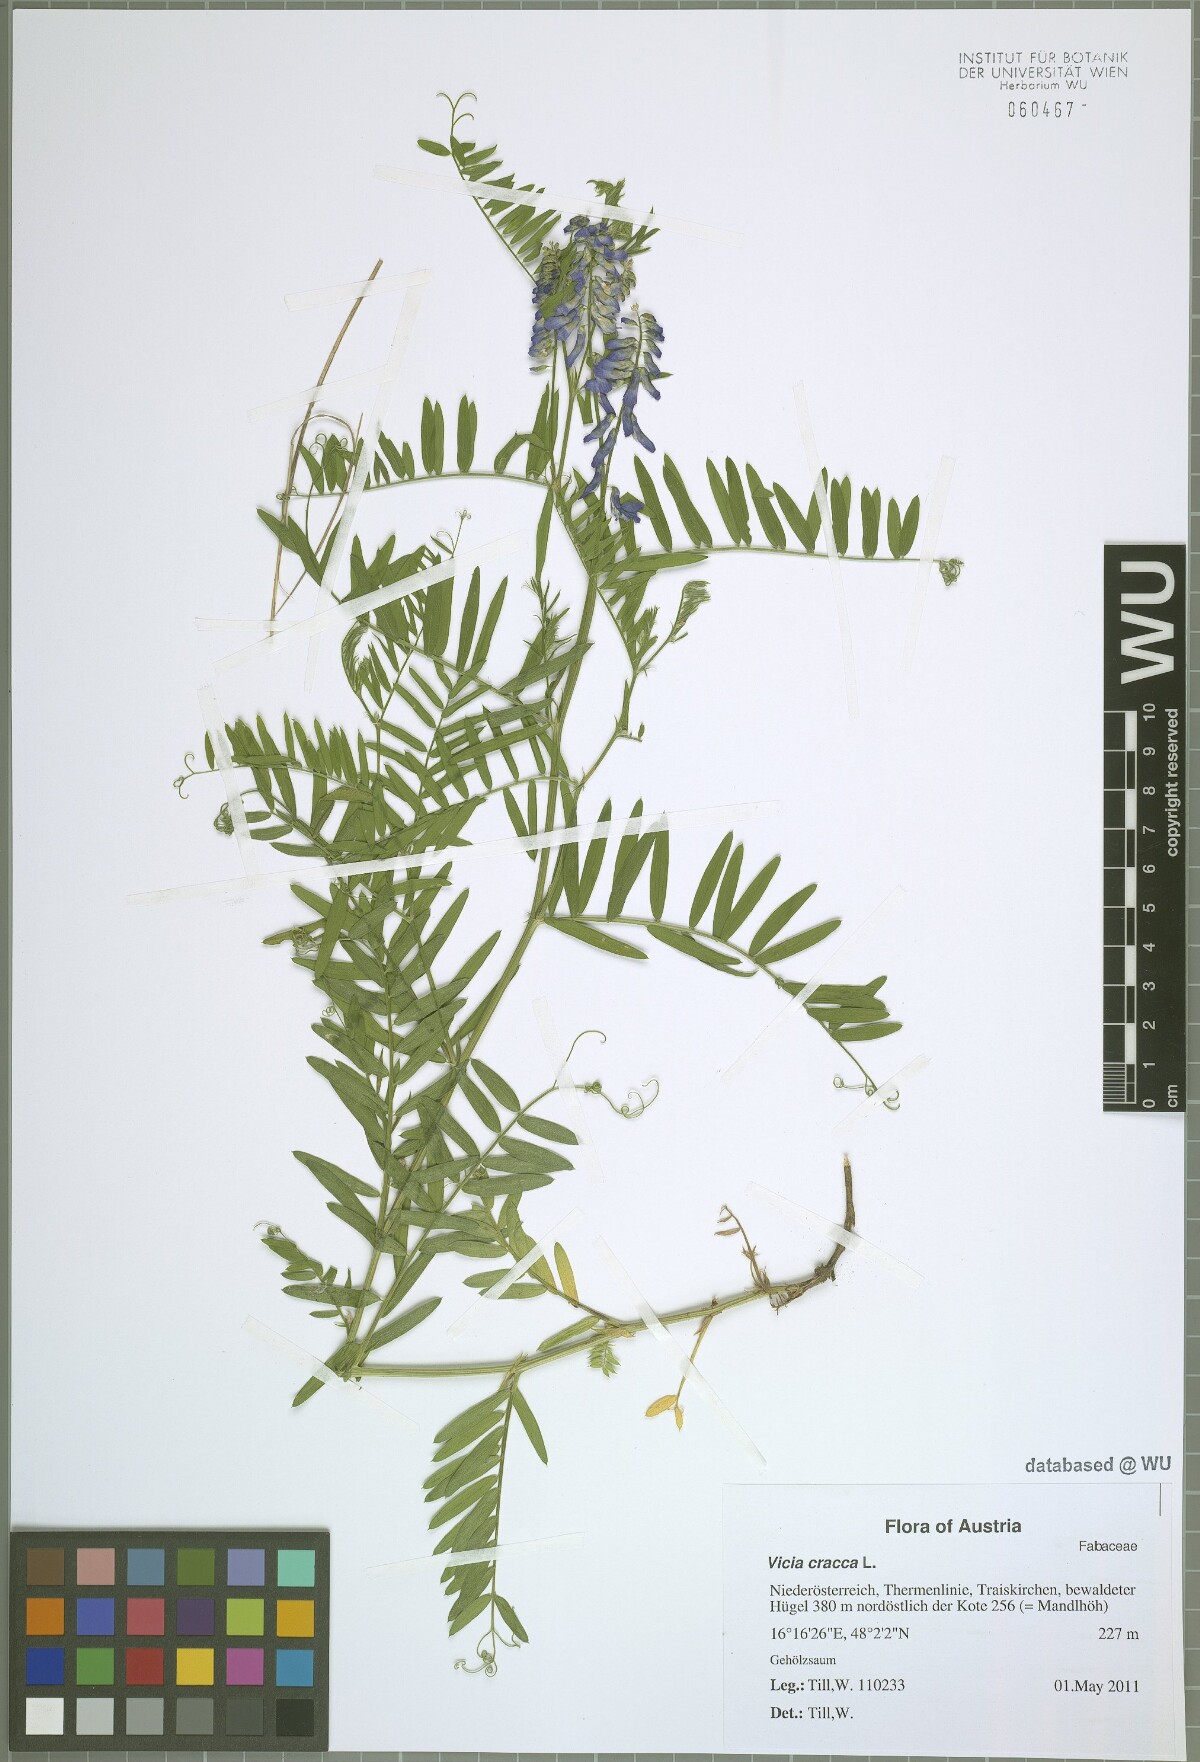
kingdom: Plantae
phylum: Tracheophyta
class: Magnoliopsida
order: Fabales
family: Fabaceae
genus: Vicia
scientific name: Vicia cracca
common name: Bird vetch
